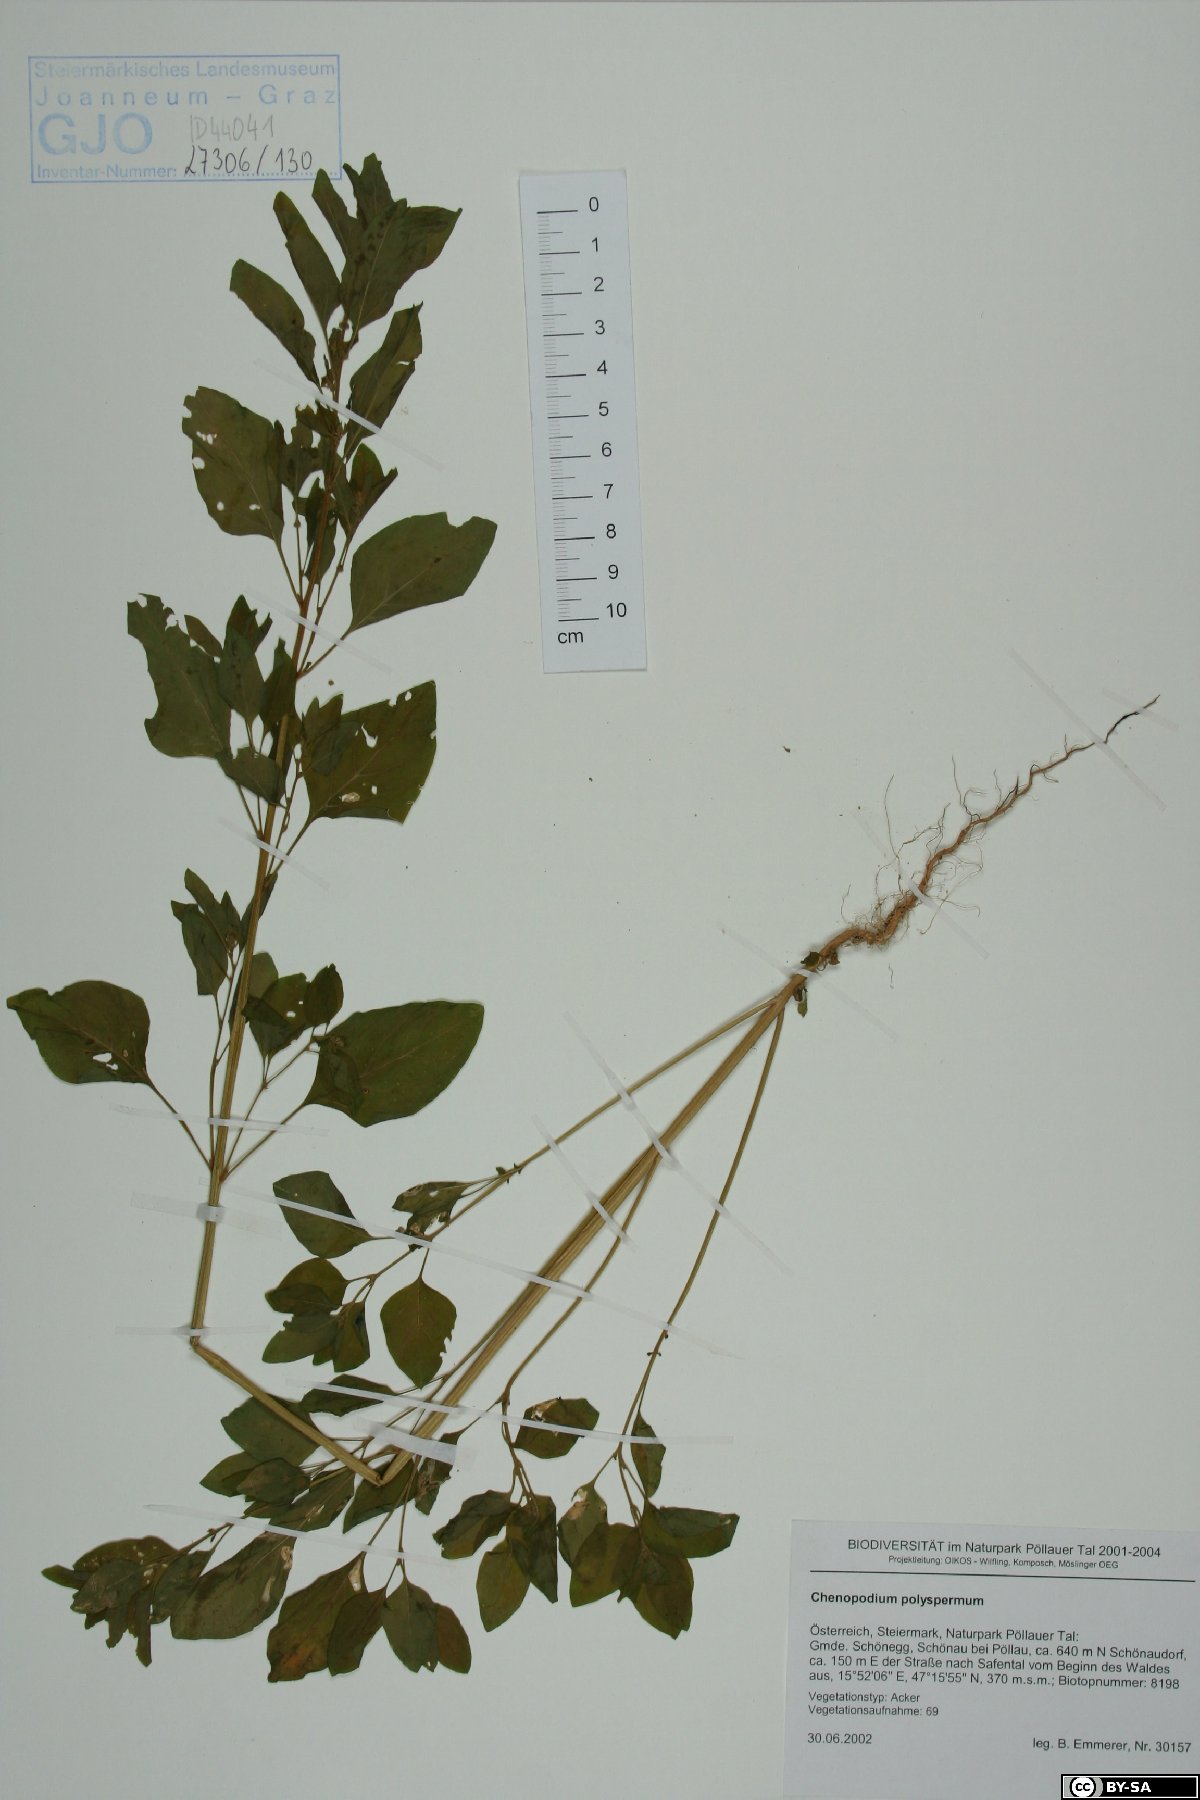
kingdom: Plantae
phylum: Tracheophyta
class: Magnoliopsida
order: Caryophyllales
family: Amaranthaceae
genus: Lipandra
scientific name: Lipandra polysperma
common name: Many-seed goosefoot
